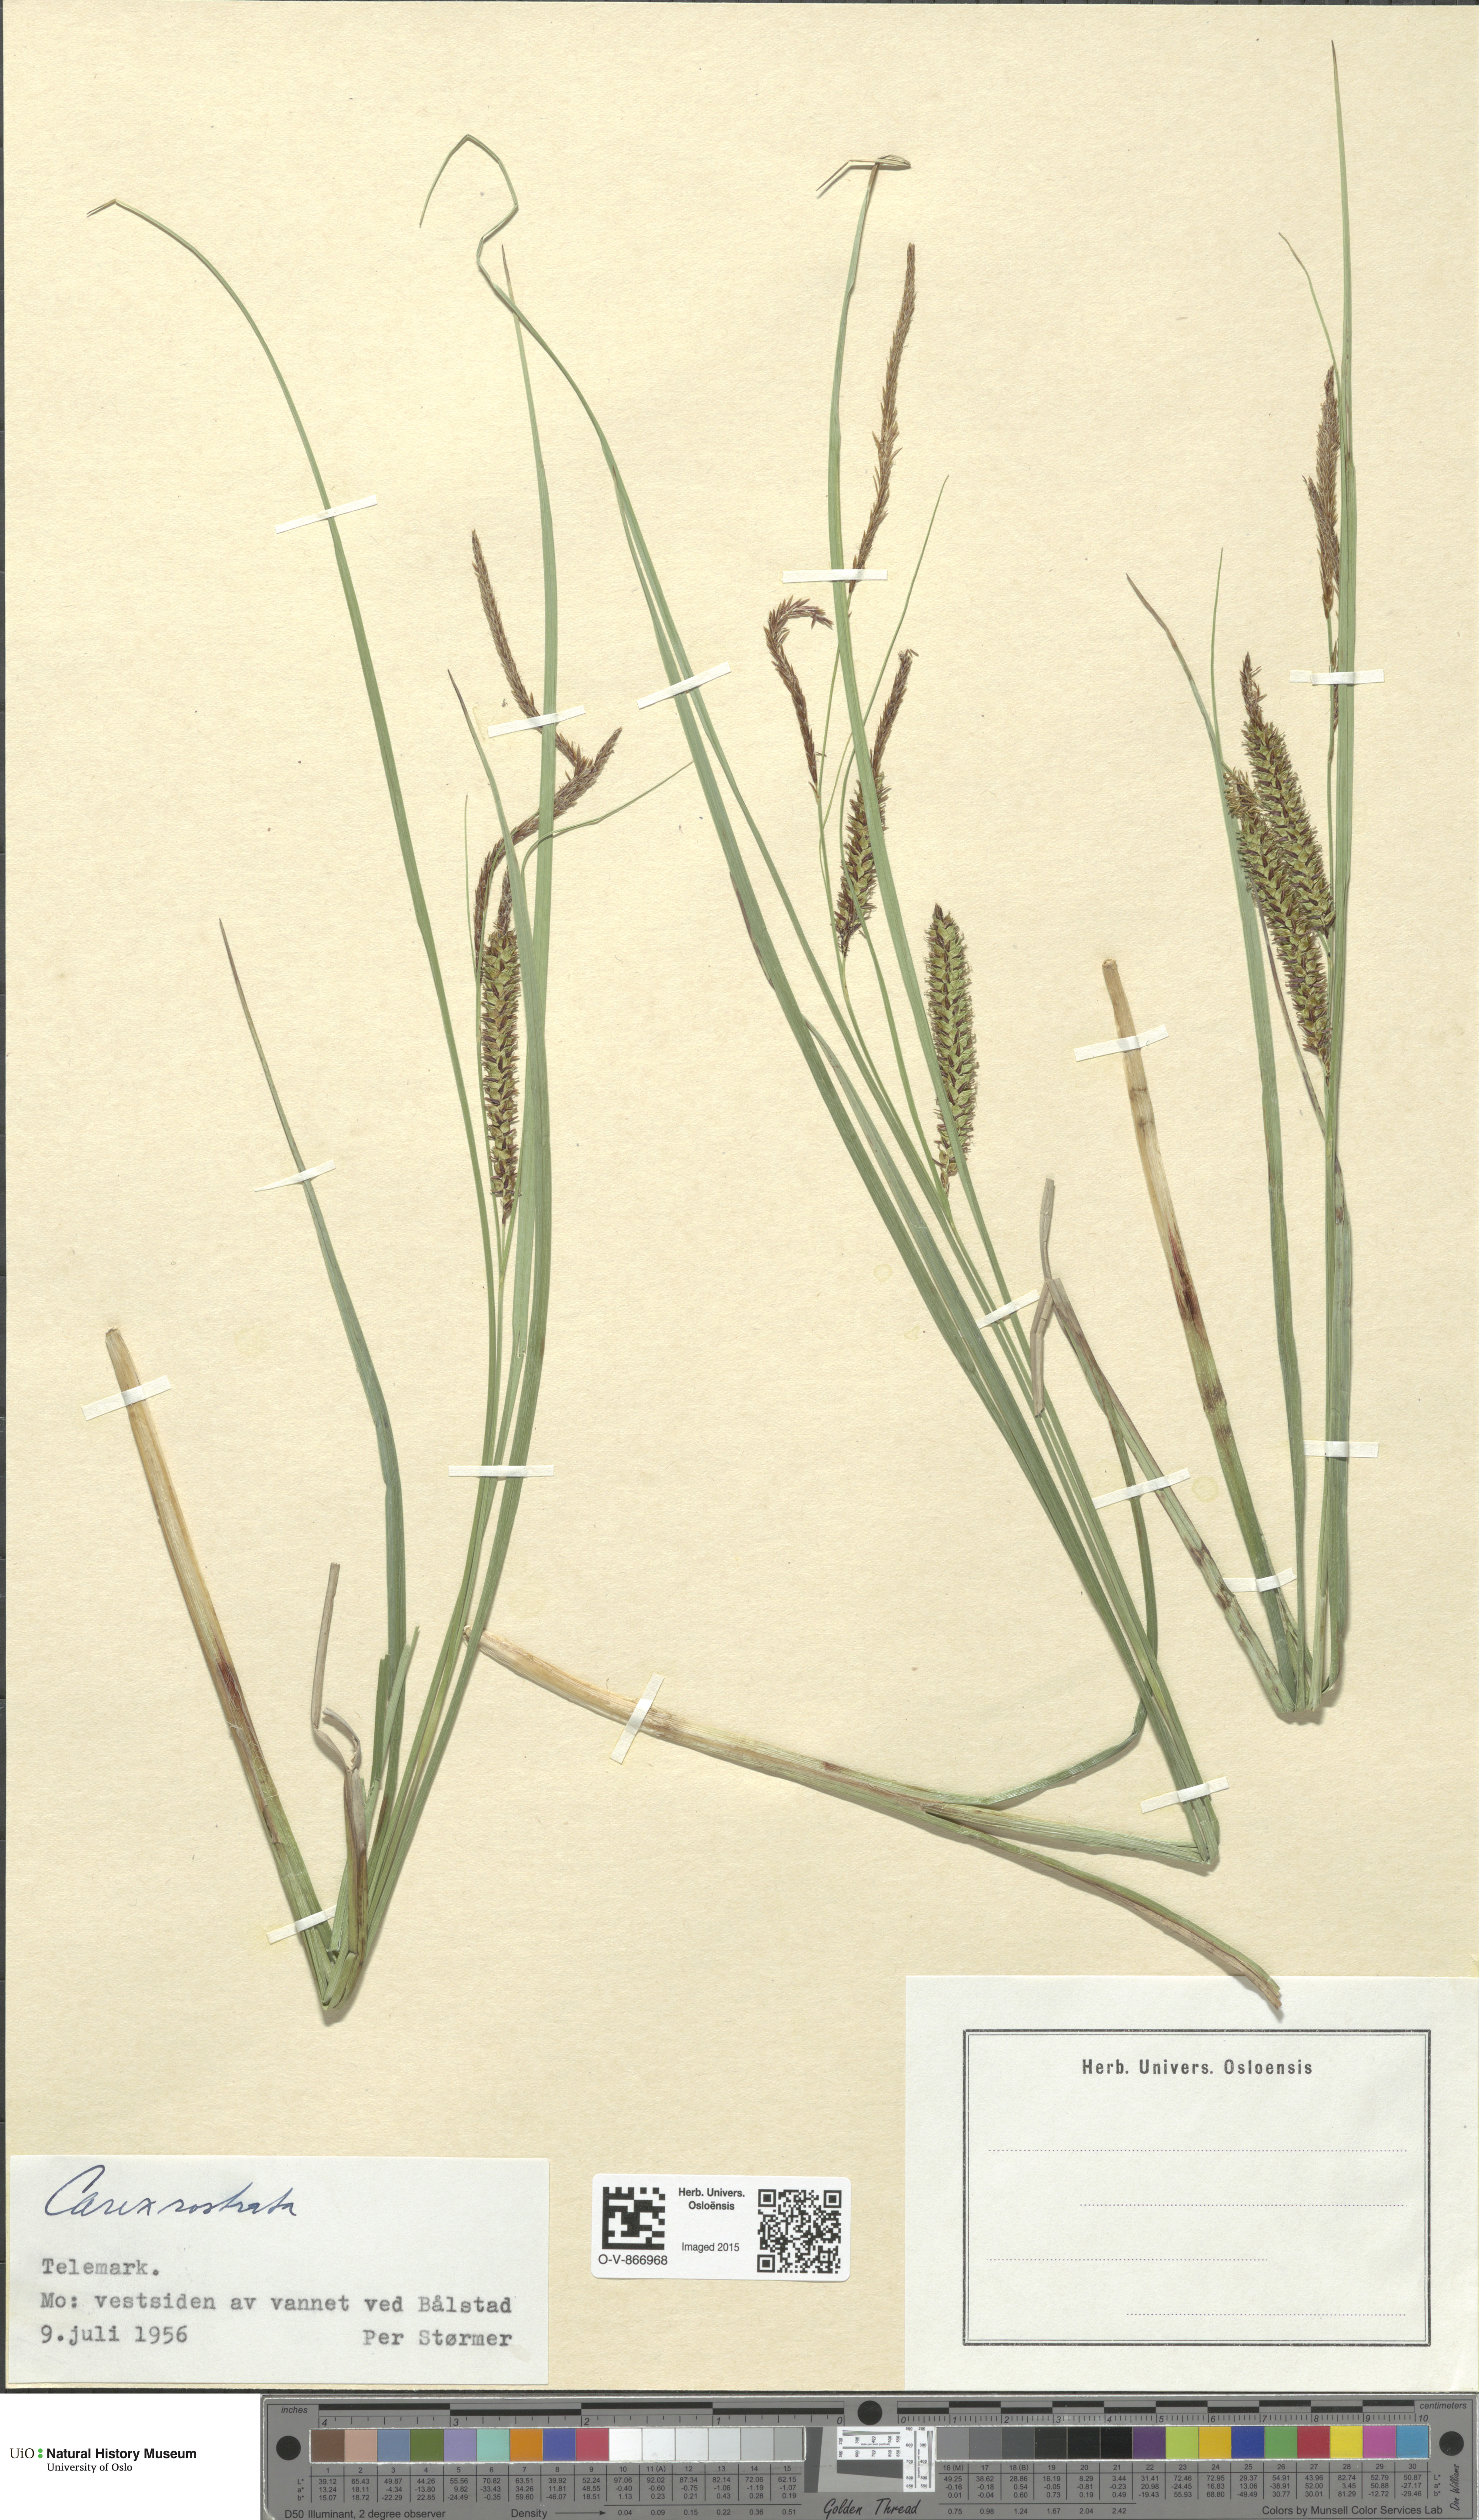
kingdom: Plantae
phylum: Tracheophyta
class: Liliopsida
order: Poales
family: Cyperaceae
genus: Carex
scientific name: Carex rostrata
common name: Bottle sedge
